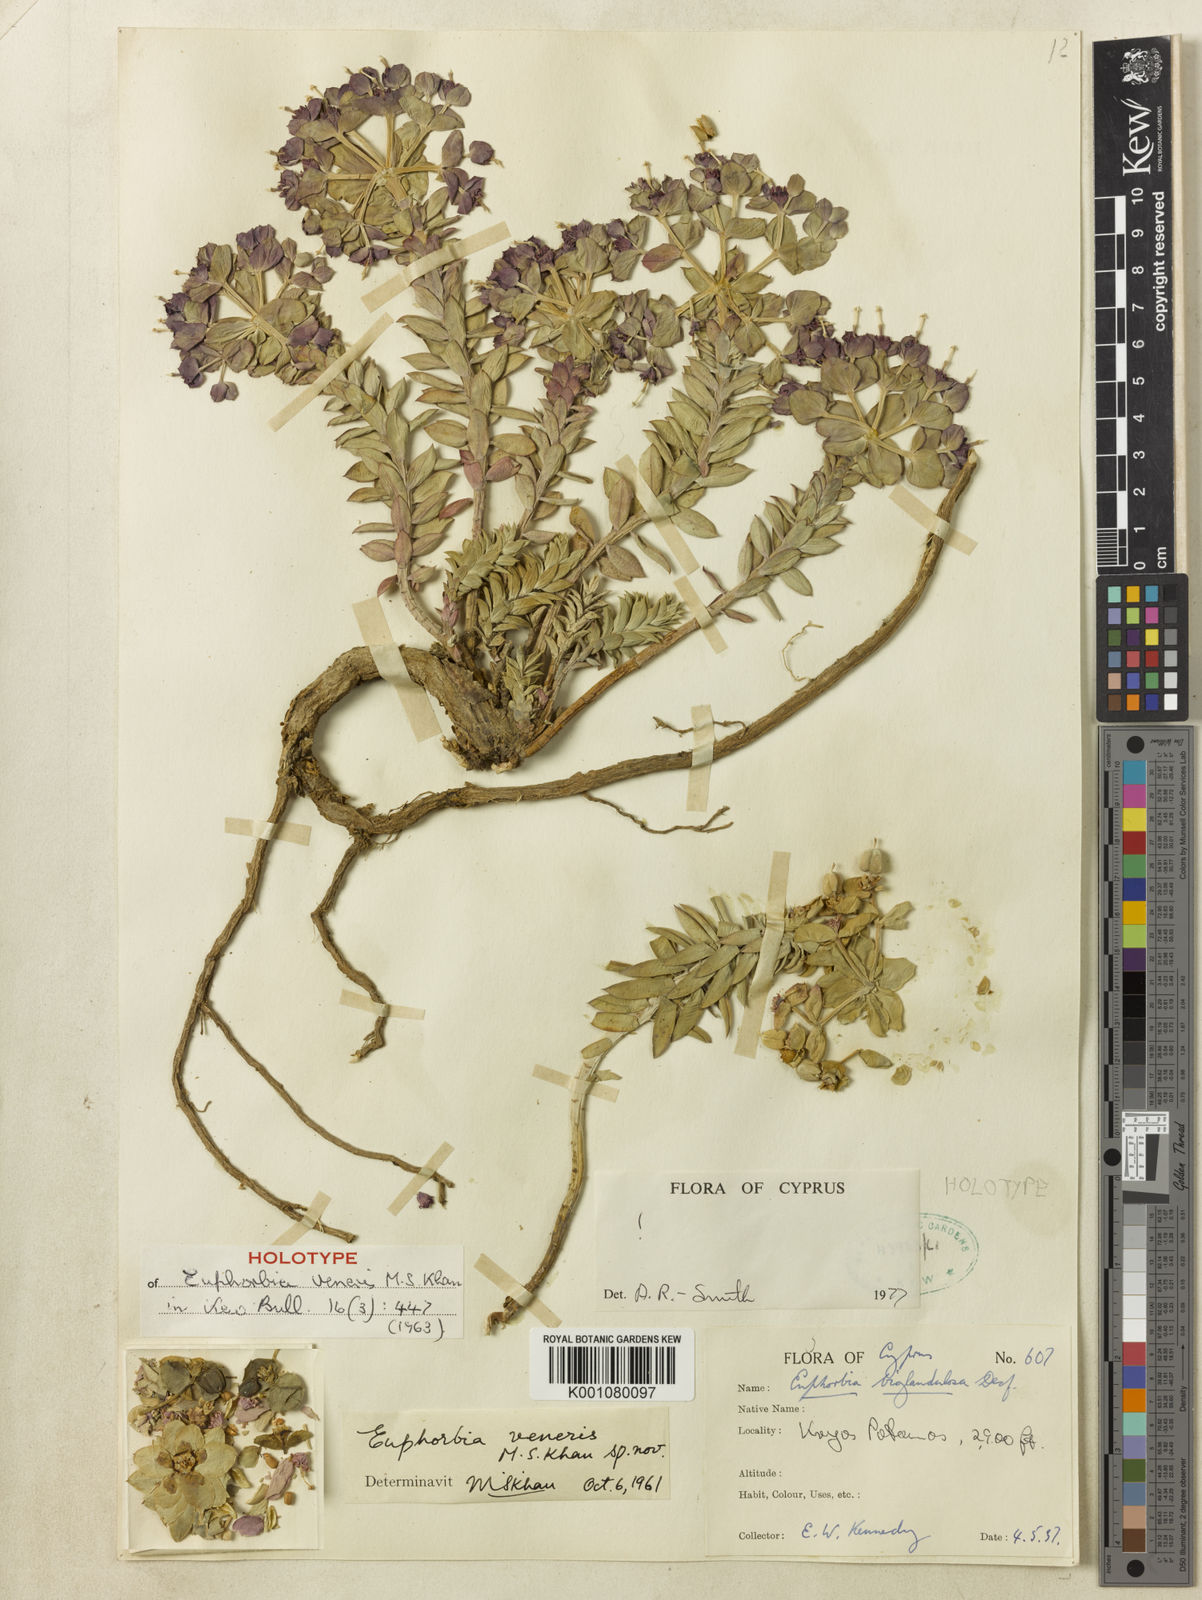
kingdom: Plantae
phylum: Tracheophyta
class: Magnoliopsida
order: Malpighiales
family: Euphorbiaceae
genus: Euphorbia
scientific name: Euphorbia veneris
